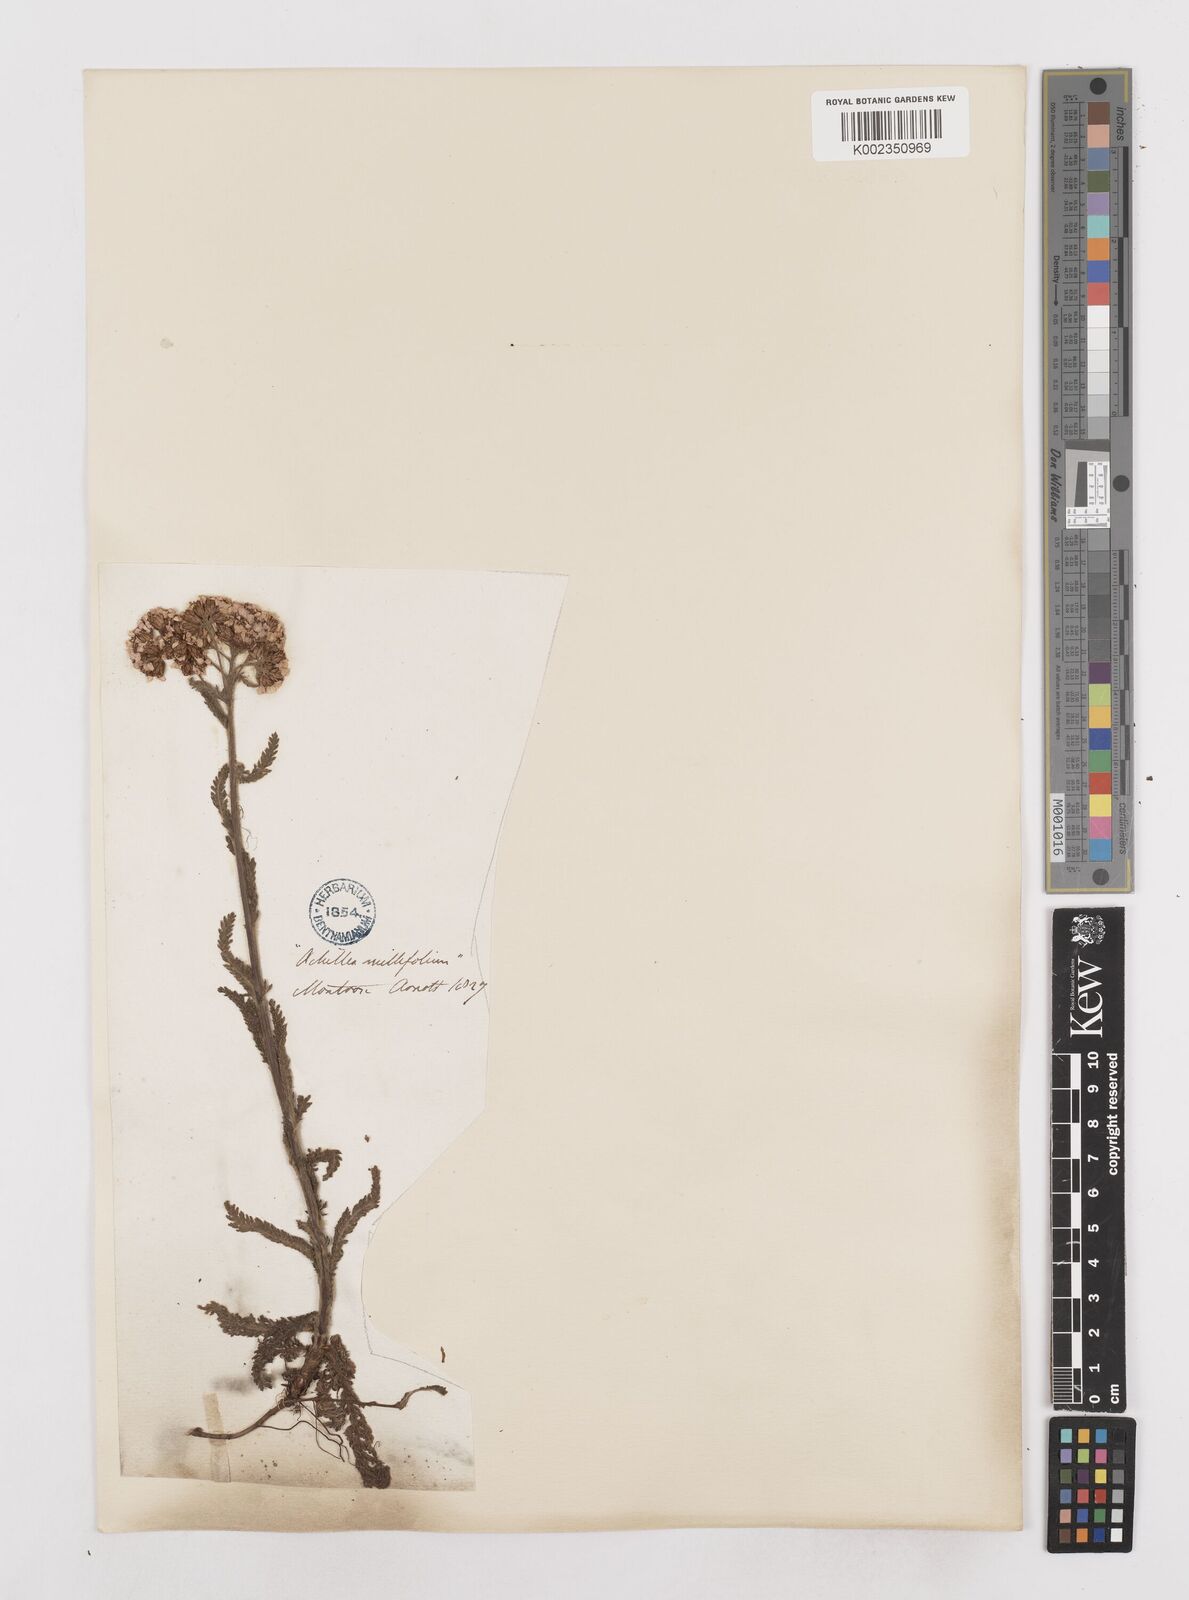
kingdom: Plantae
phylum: Tracheophyta
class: Magnoliopsida
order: Asterales
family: Asteraceae
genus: Achillea
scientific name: Achillea millefolium
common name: Yarrow
